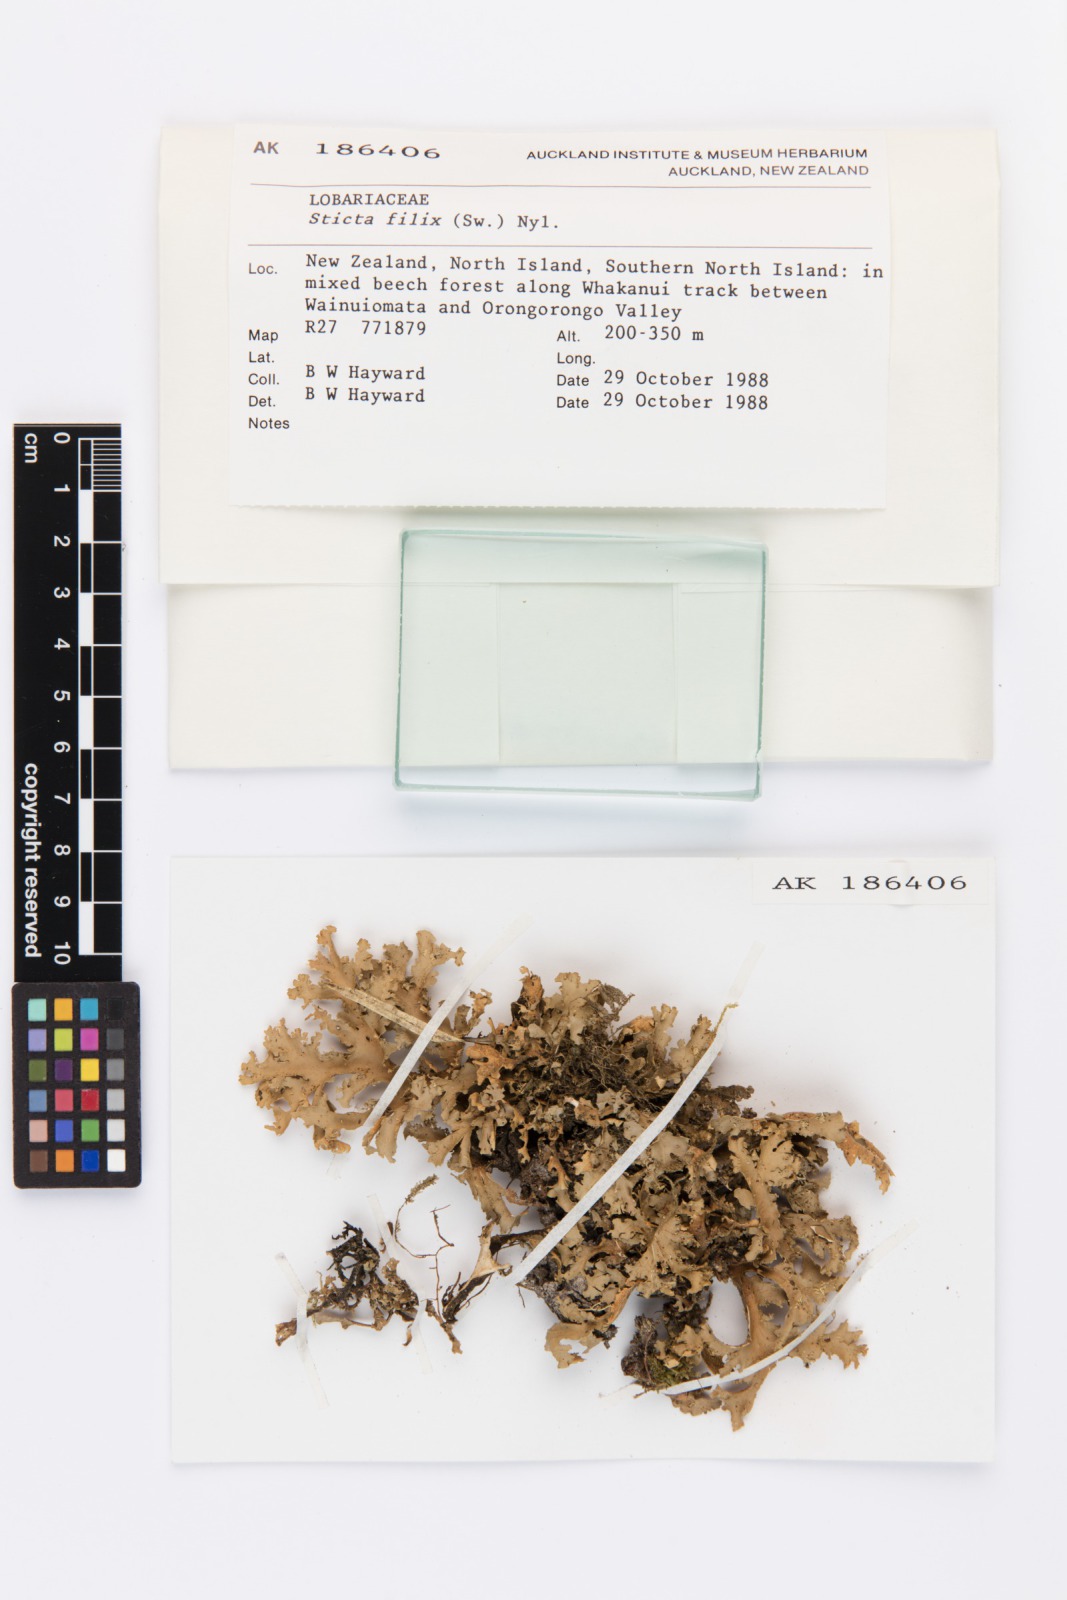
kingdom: Fungi
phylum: Ascomycota
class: Lecanoromycetes
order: Peltigerales
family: Lobariaceae
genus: Sticta
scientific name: Sticta filix
